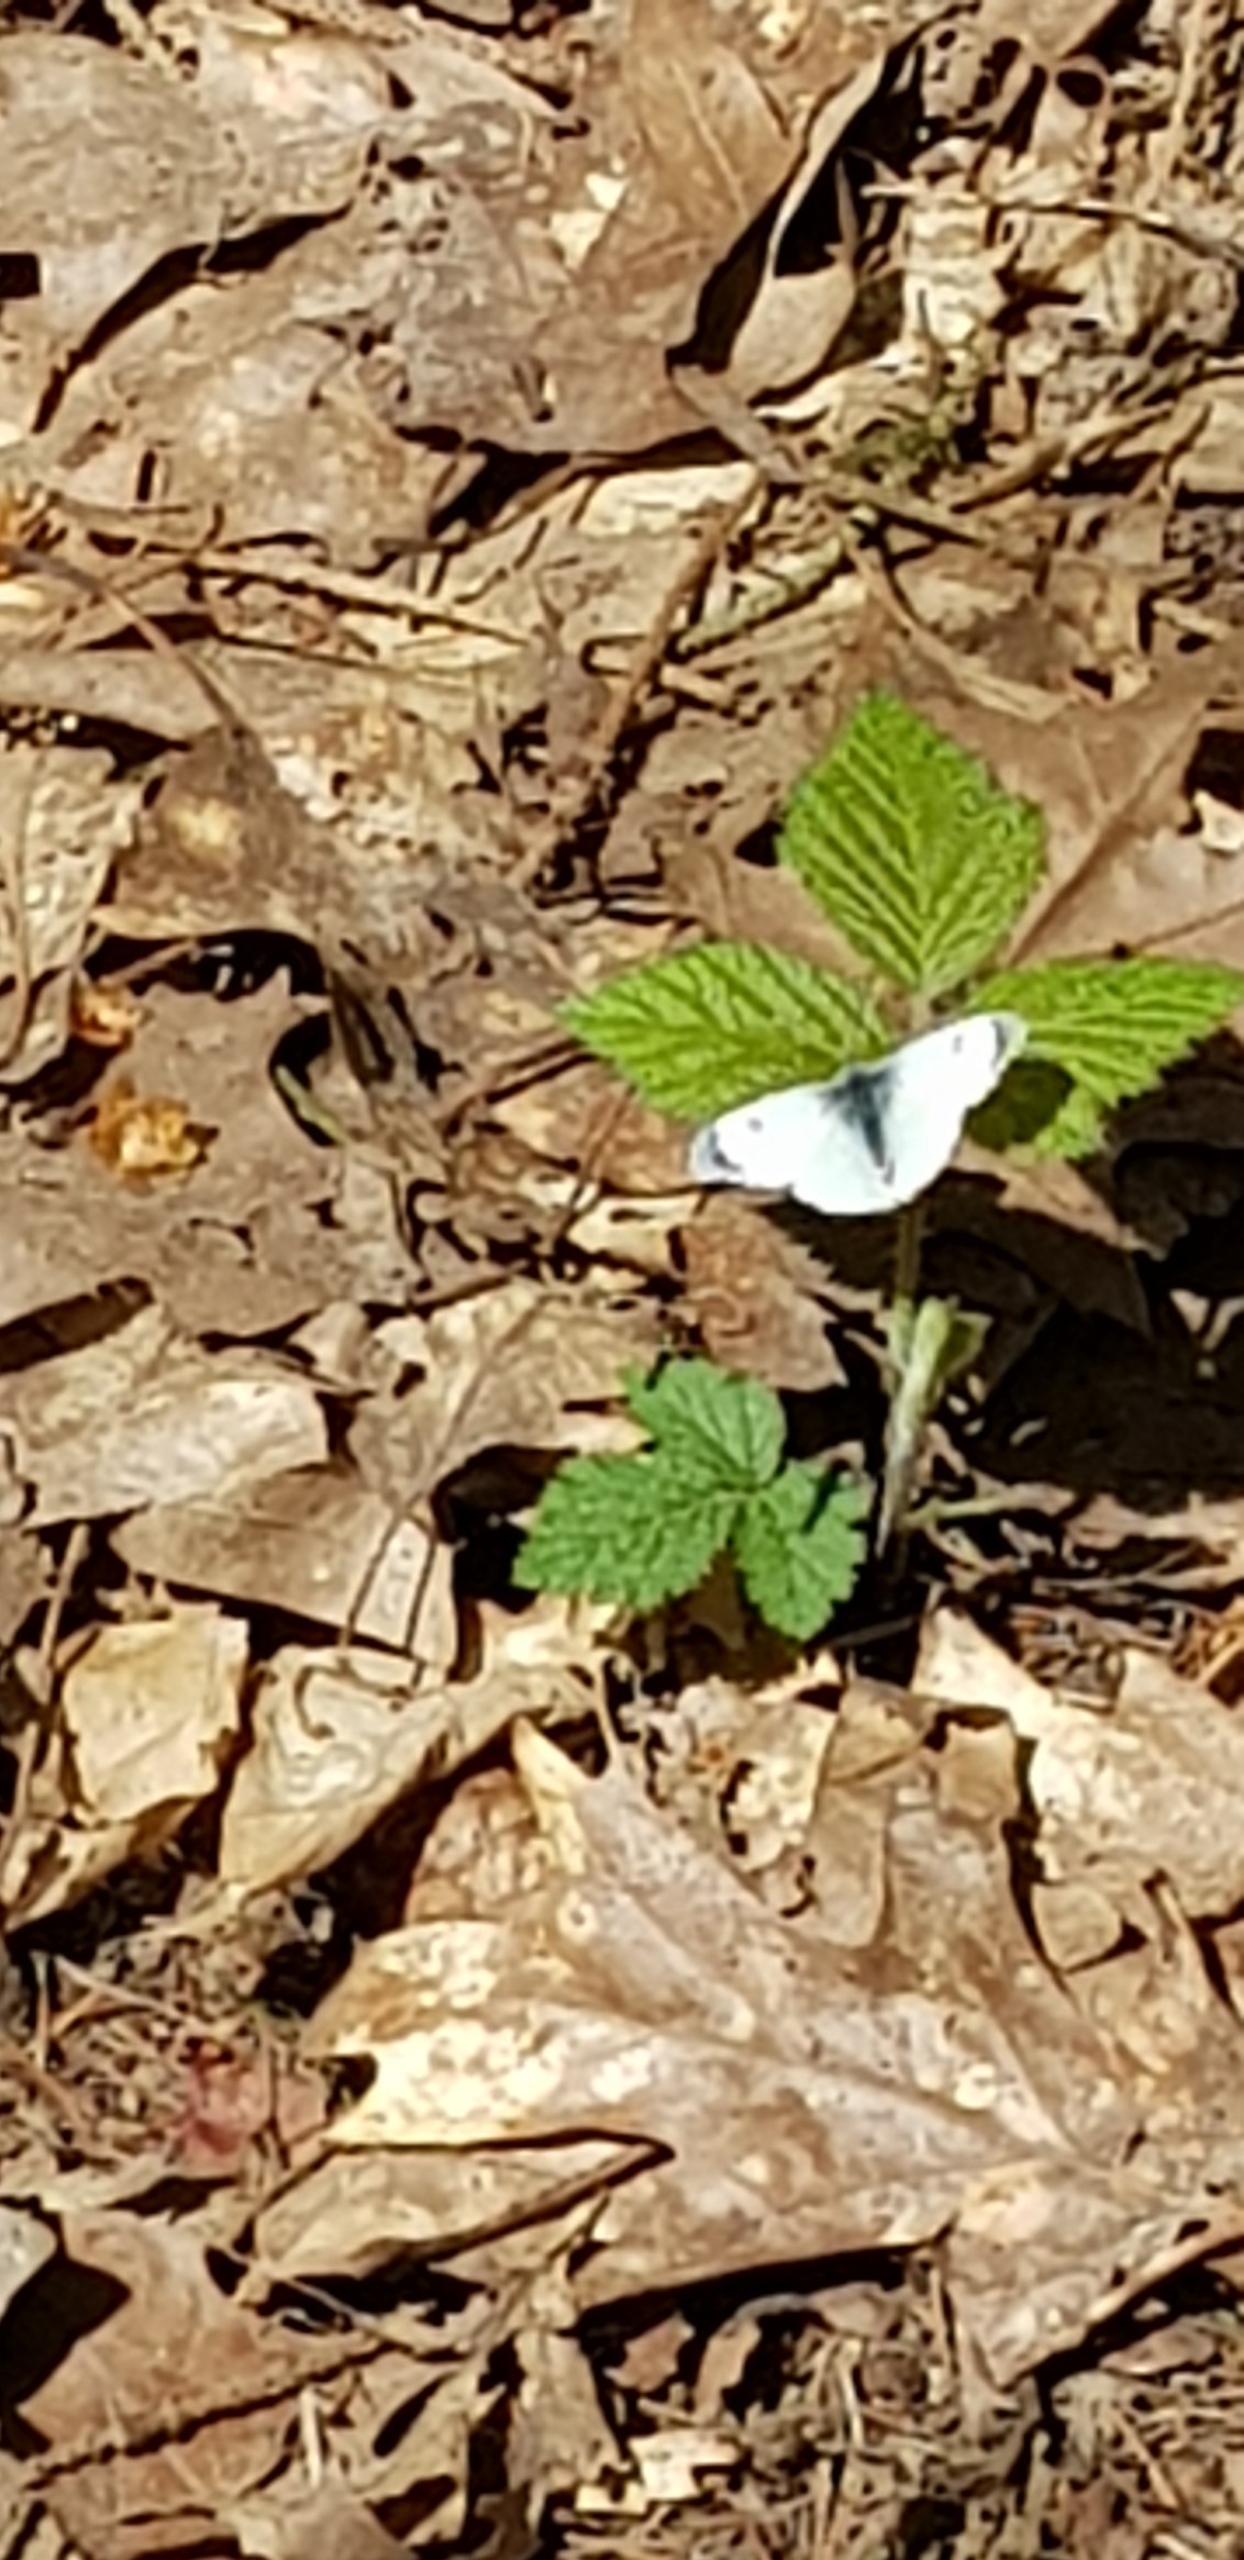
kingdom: Animalia
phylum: Arthropoda
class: Insecta
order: Lepidoptera
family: Pieridae
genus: Anthocharis
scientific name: Anthocharis cardamines
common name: Aurora
